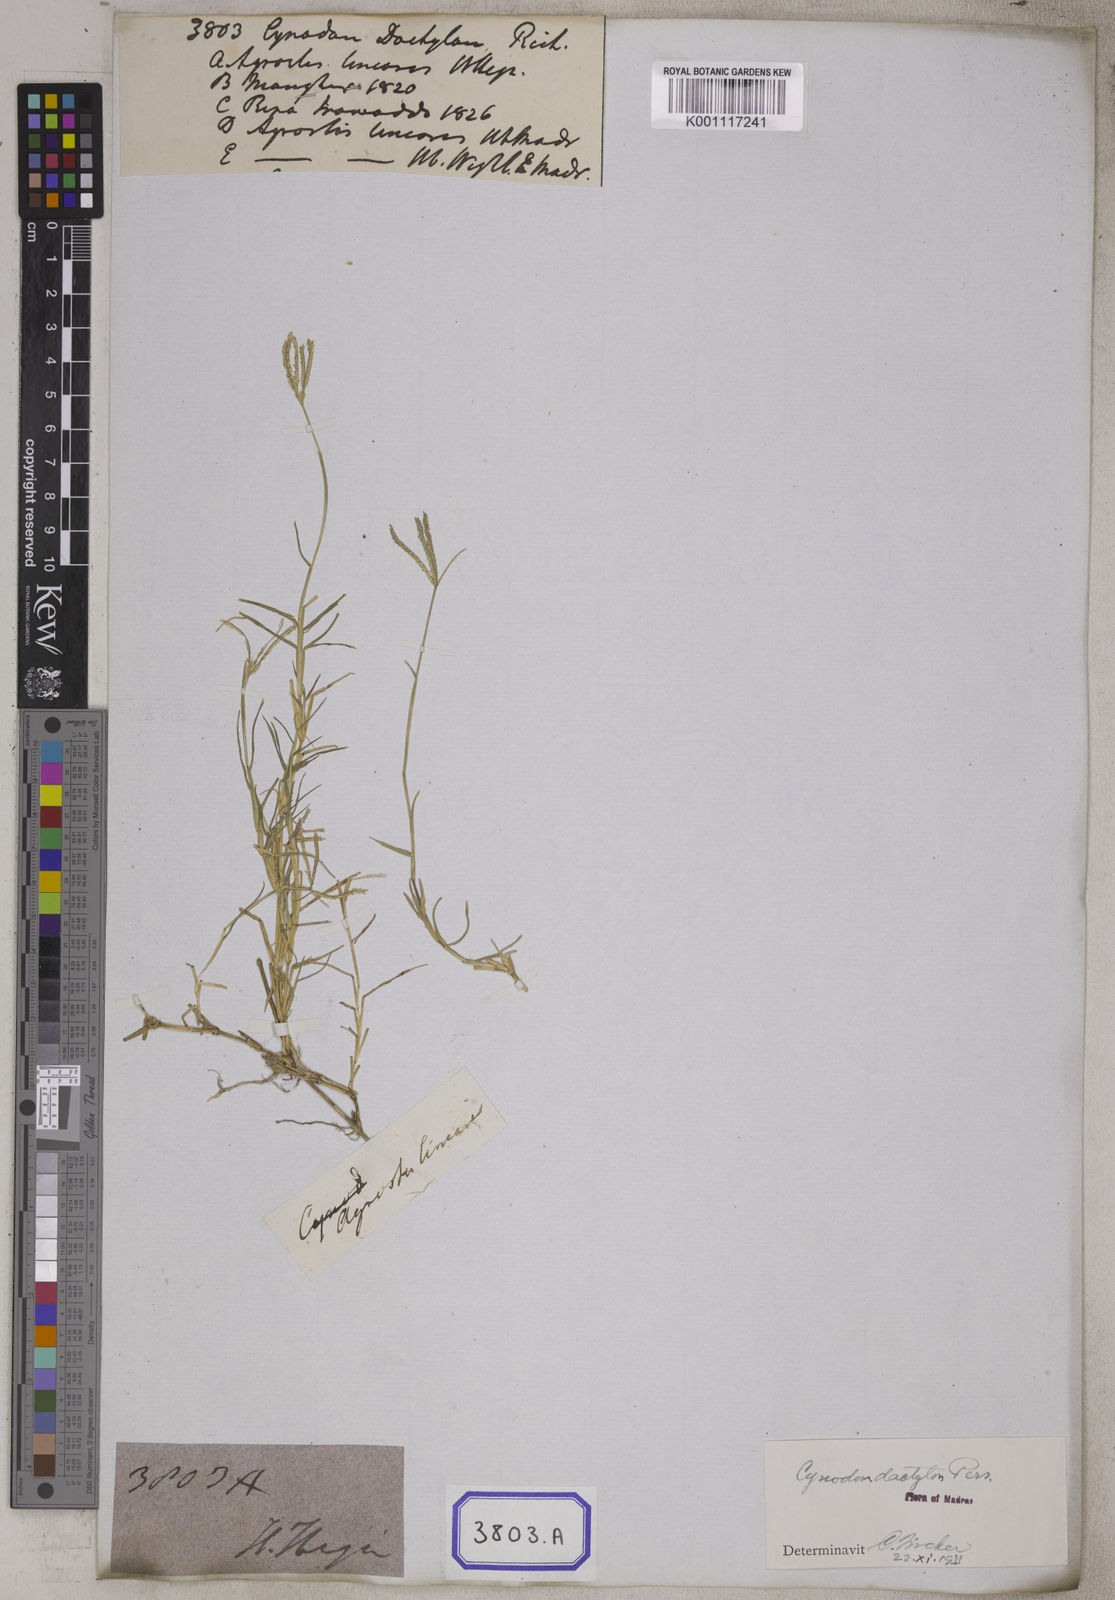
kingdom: Plantae
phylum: Tracheophyta
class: Liliopsida
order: Poales
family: Poaceae
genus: Cynodon
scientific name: Cynodon dactylon
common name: Bermuda grass
